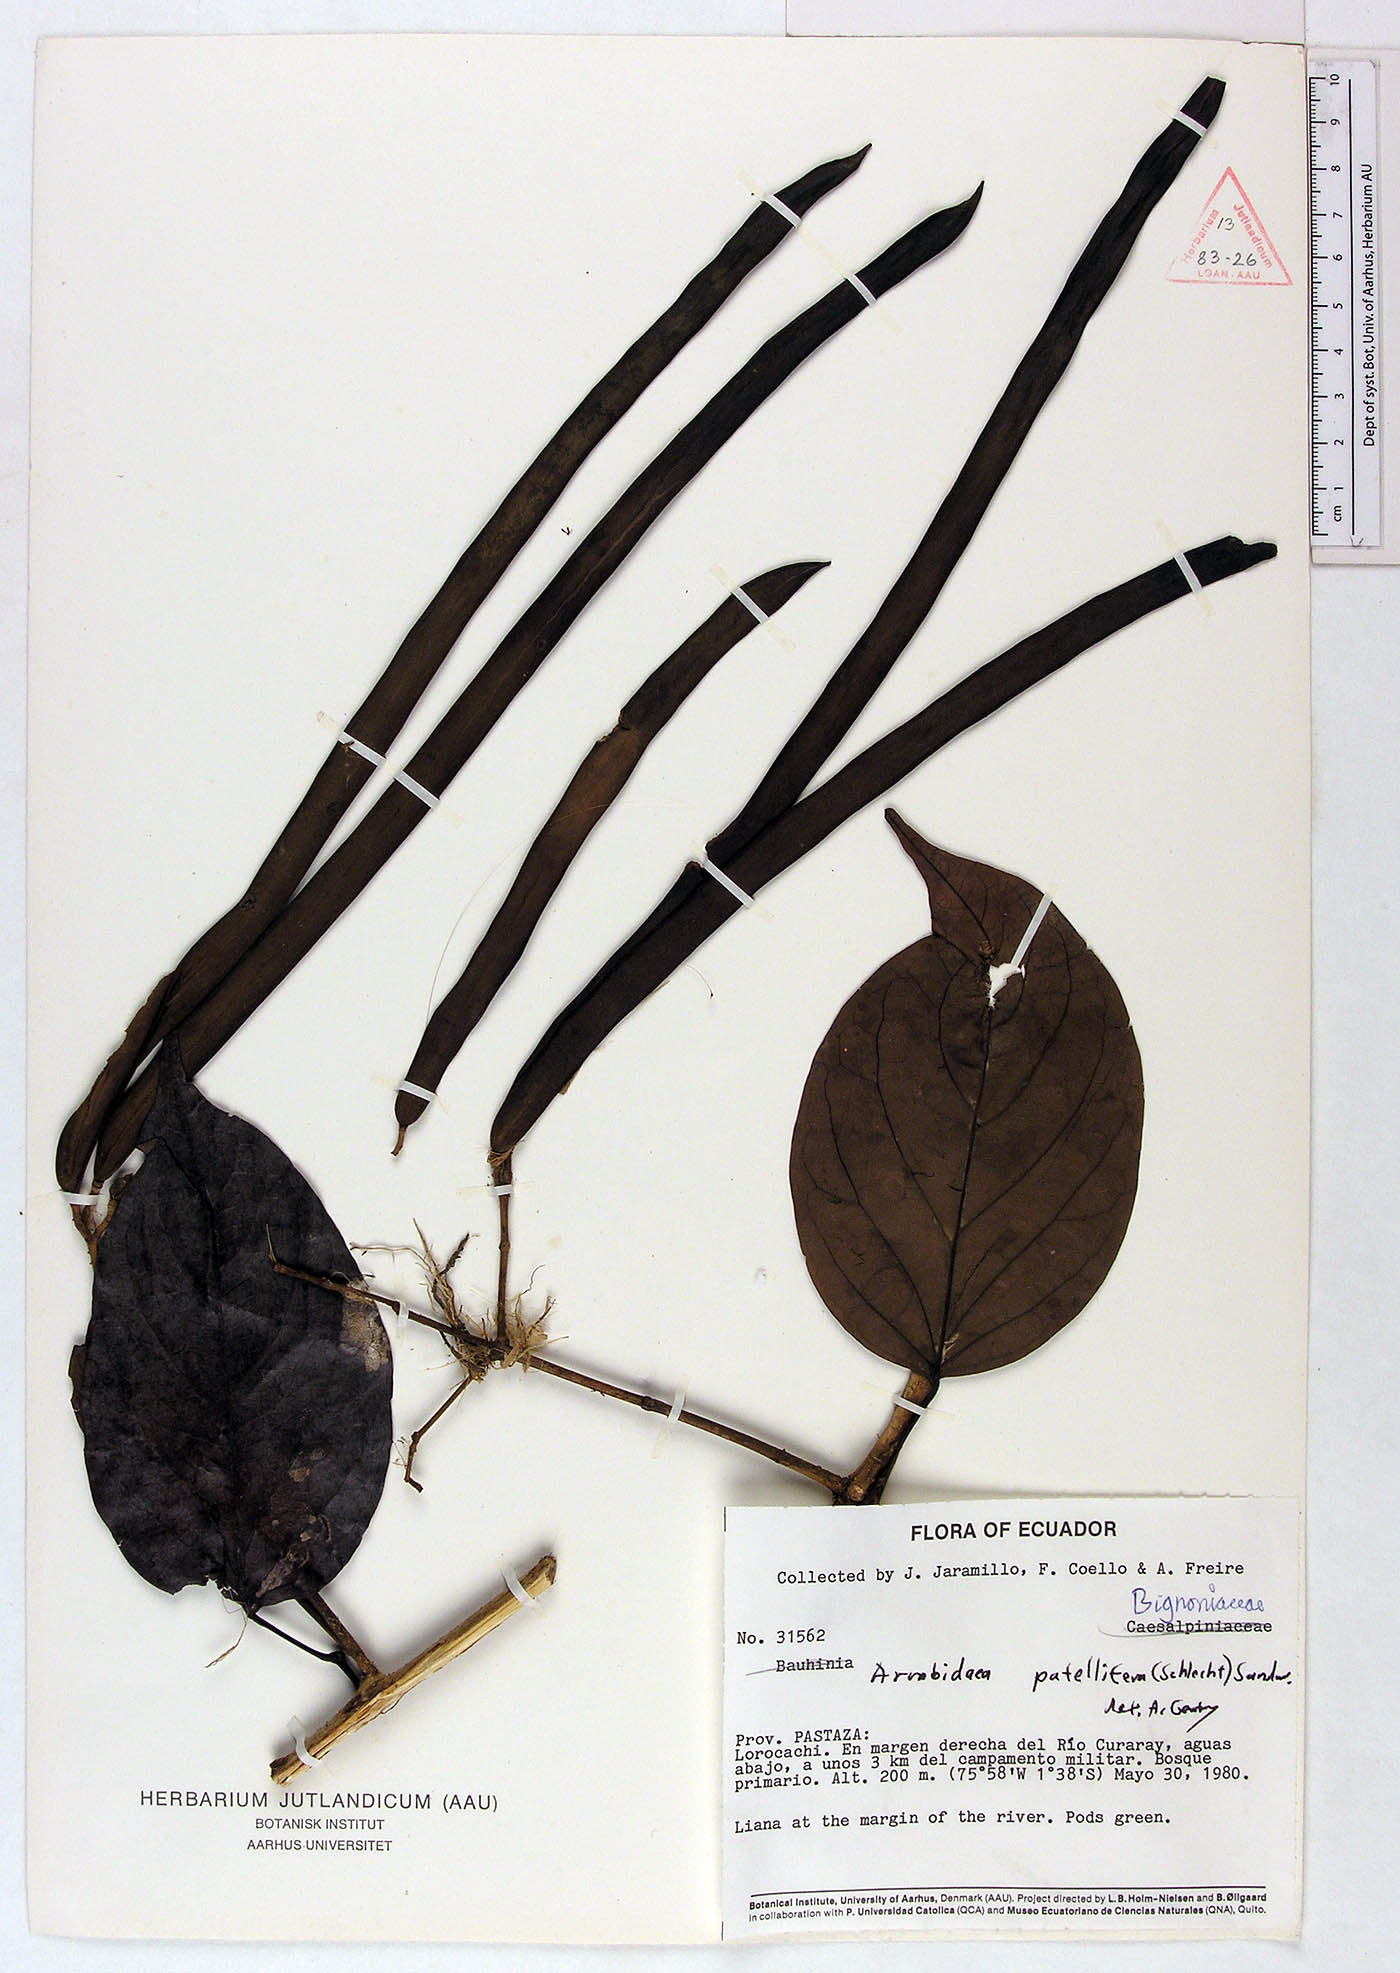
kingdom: Plantae
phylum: Tracheophyta
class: Magnoliopsida
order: Lamiales
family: Bignoniaceae
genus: Fridericia
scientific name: Fridericia patellifera
